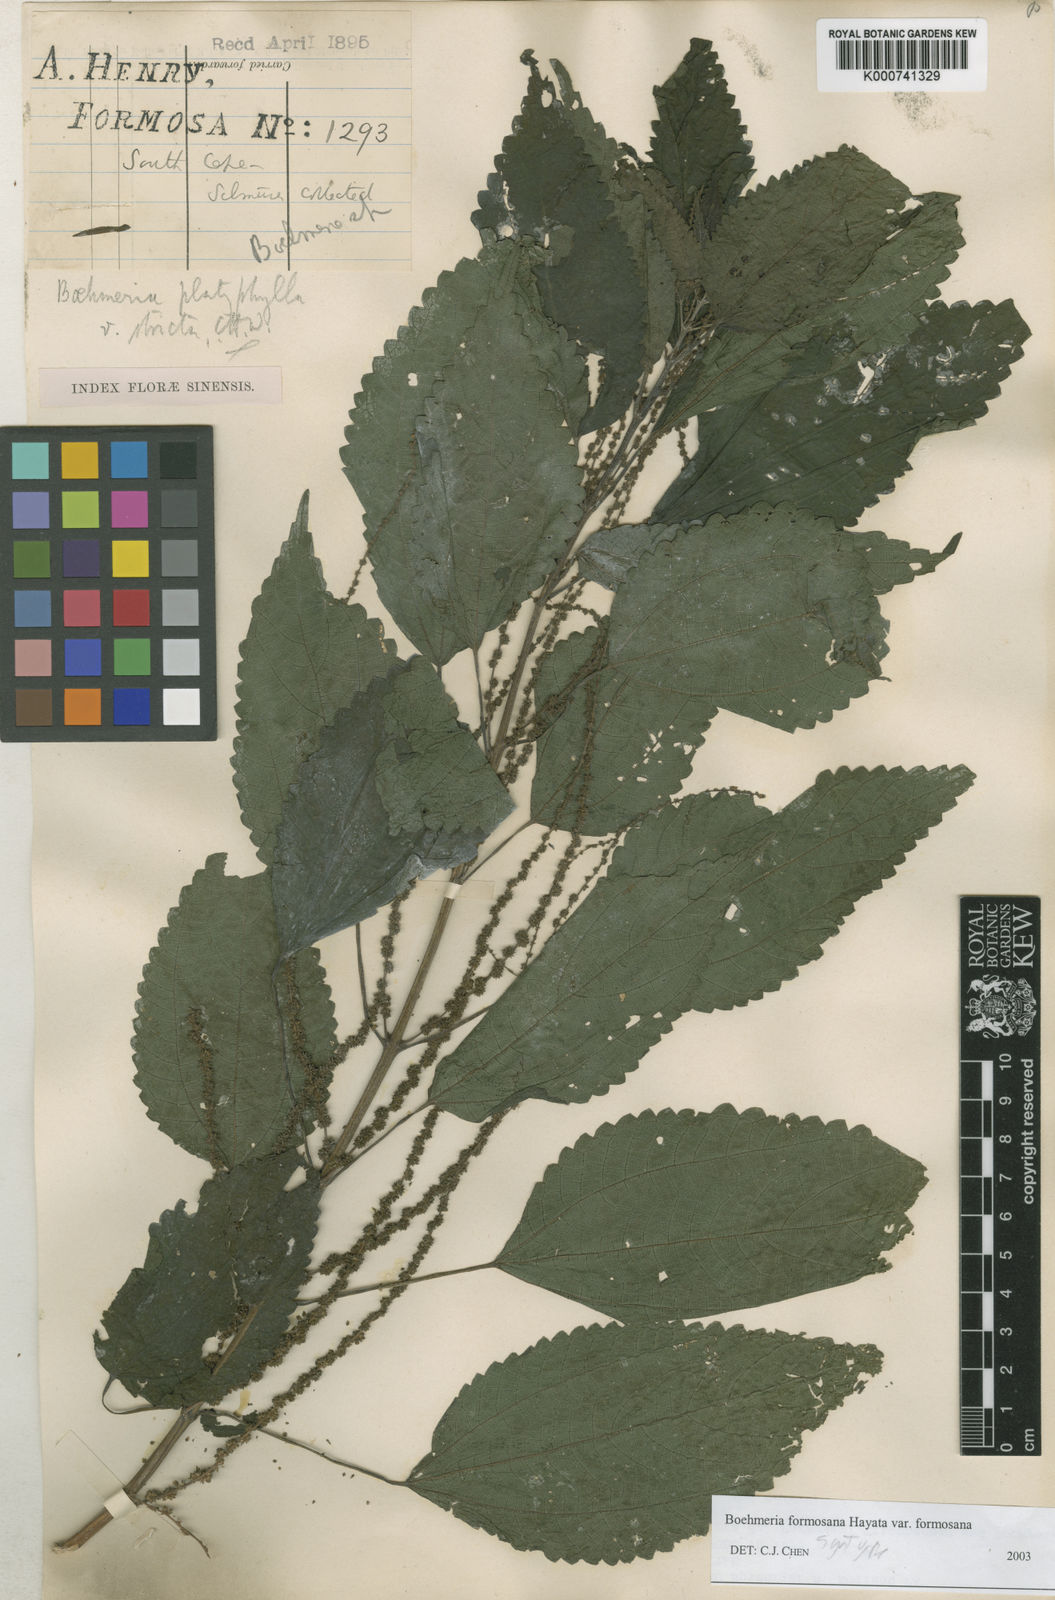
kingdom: Plantae
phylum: Tracheophyta
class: Magnoliopsida
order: Rosales
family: Urticaceae
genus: Boehmeria
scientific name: Boehmeria sieboldiana
